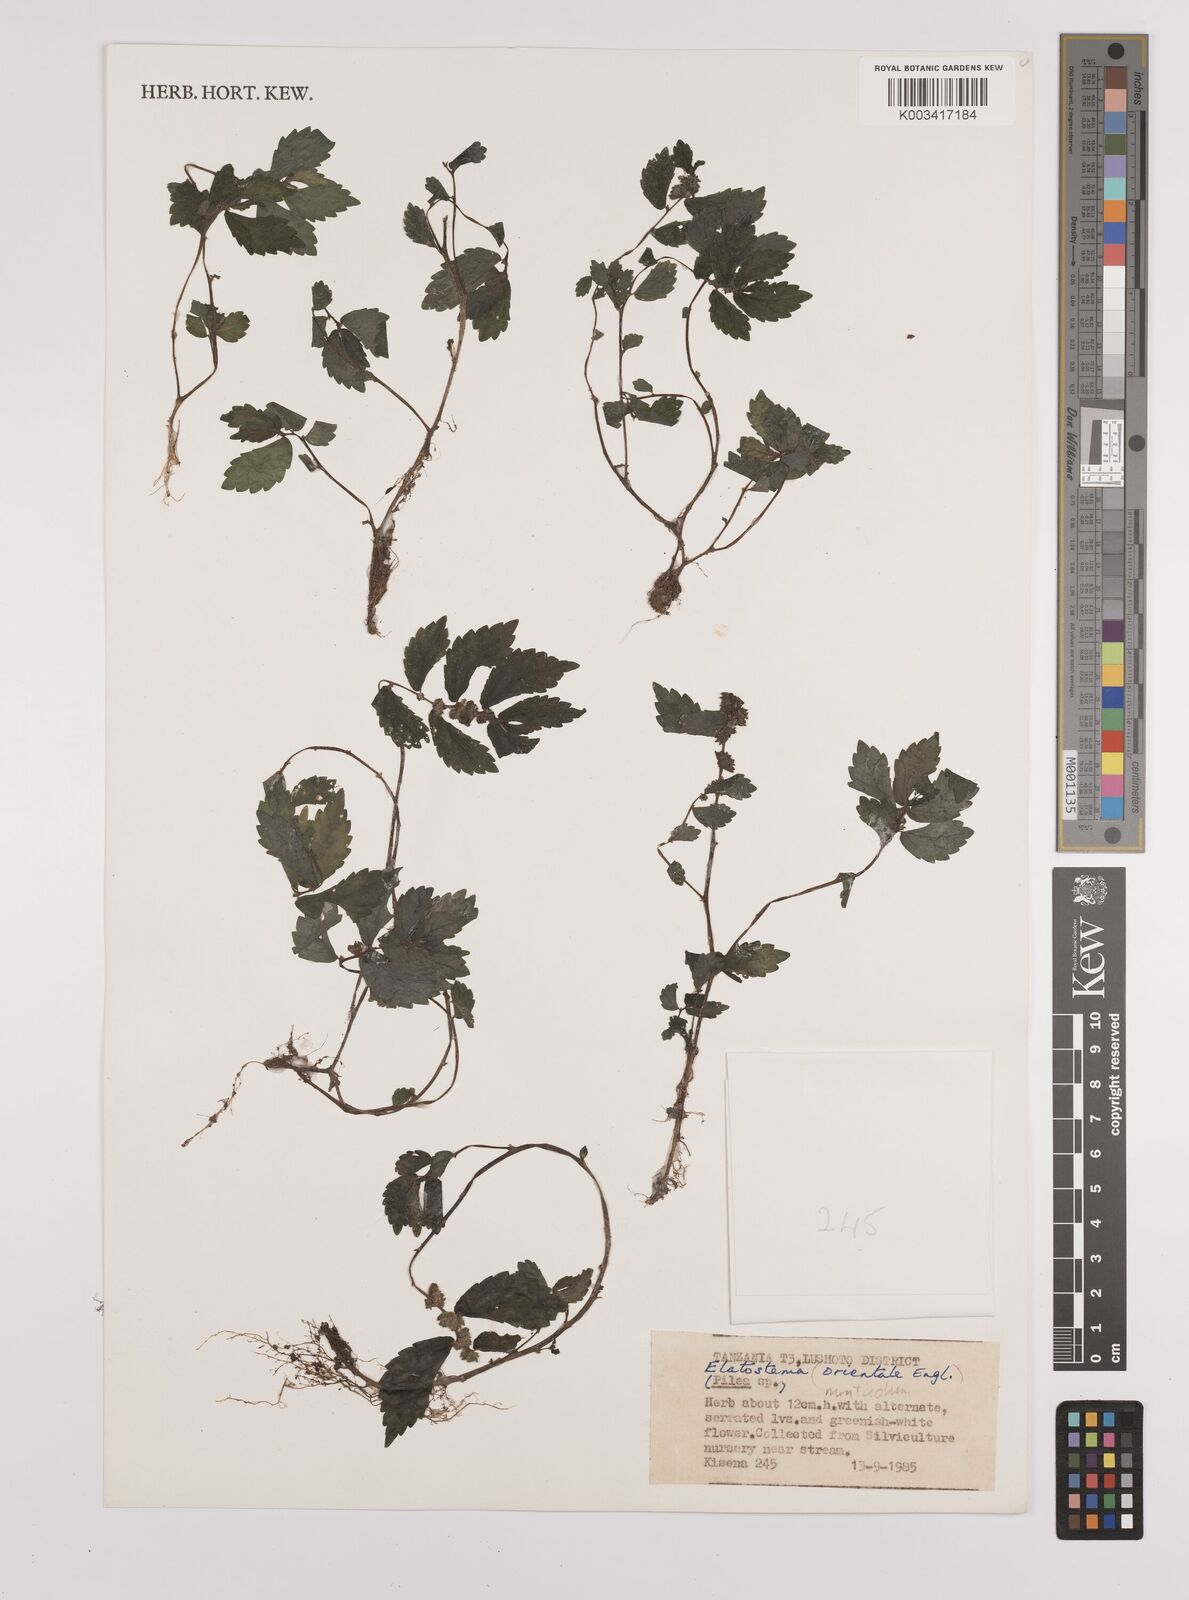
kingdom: Plantae
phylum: Tracheophyta
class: Magnoliopsida
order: Rosales
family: Urticaceae
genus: Elatostema
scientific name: Elatostema monticola
